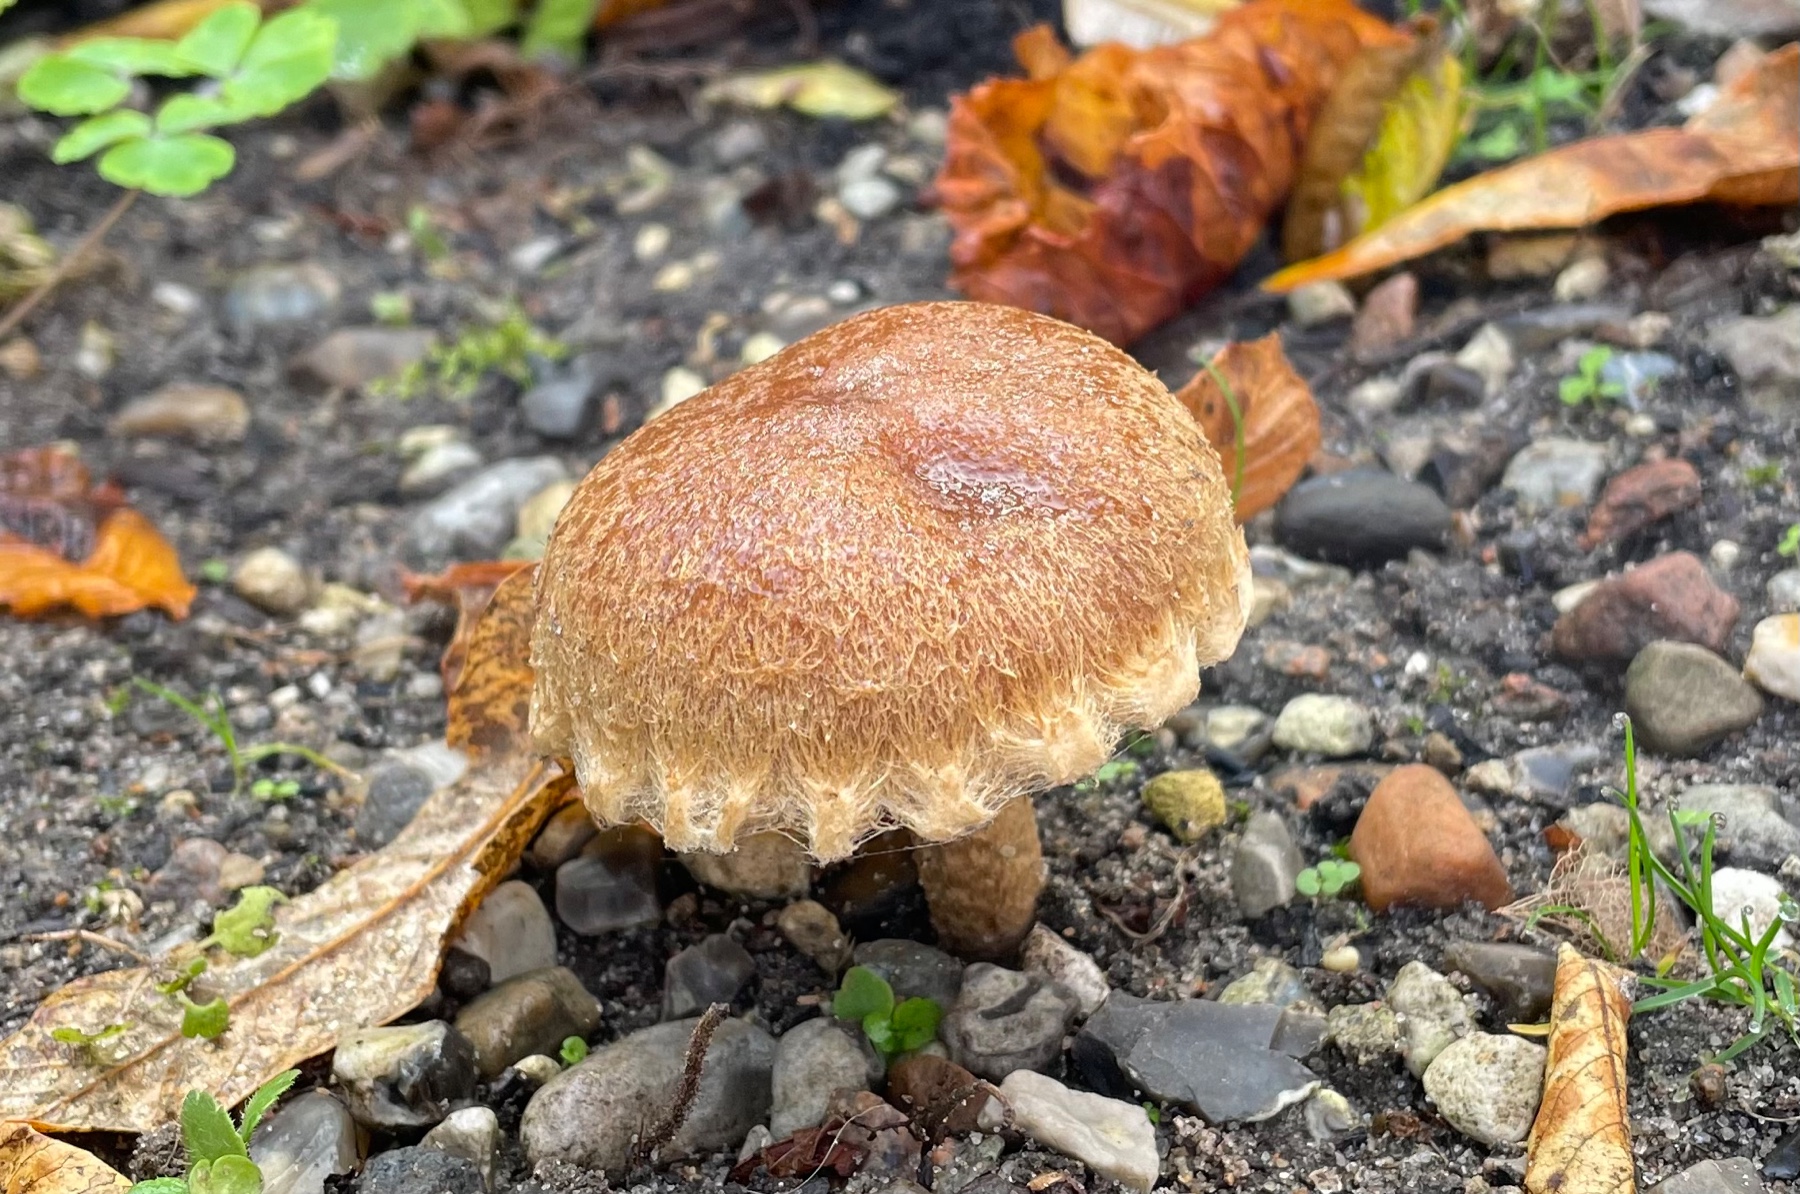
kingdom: Fungi
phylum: Basidiomycota
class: Agaricomycetes
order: Agaricales
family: Psathyrellaceae
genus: Lacrymaria
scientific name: Lacrymaria lacrymabunda
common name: grædende mørkhat
